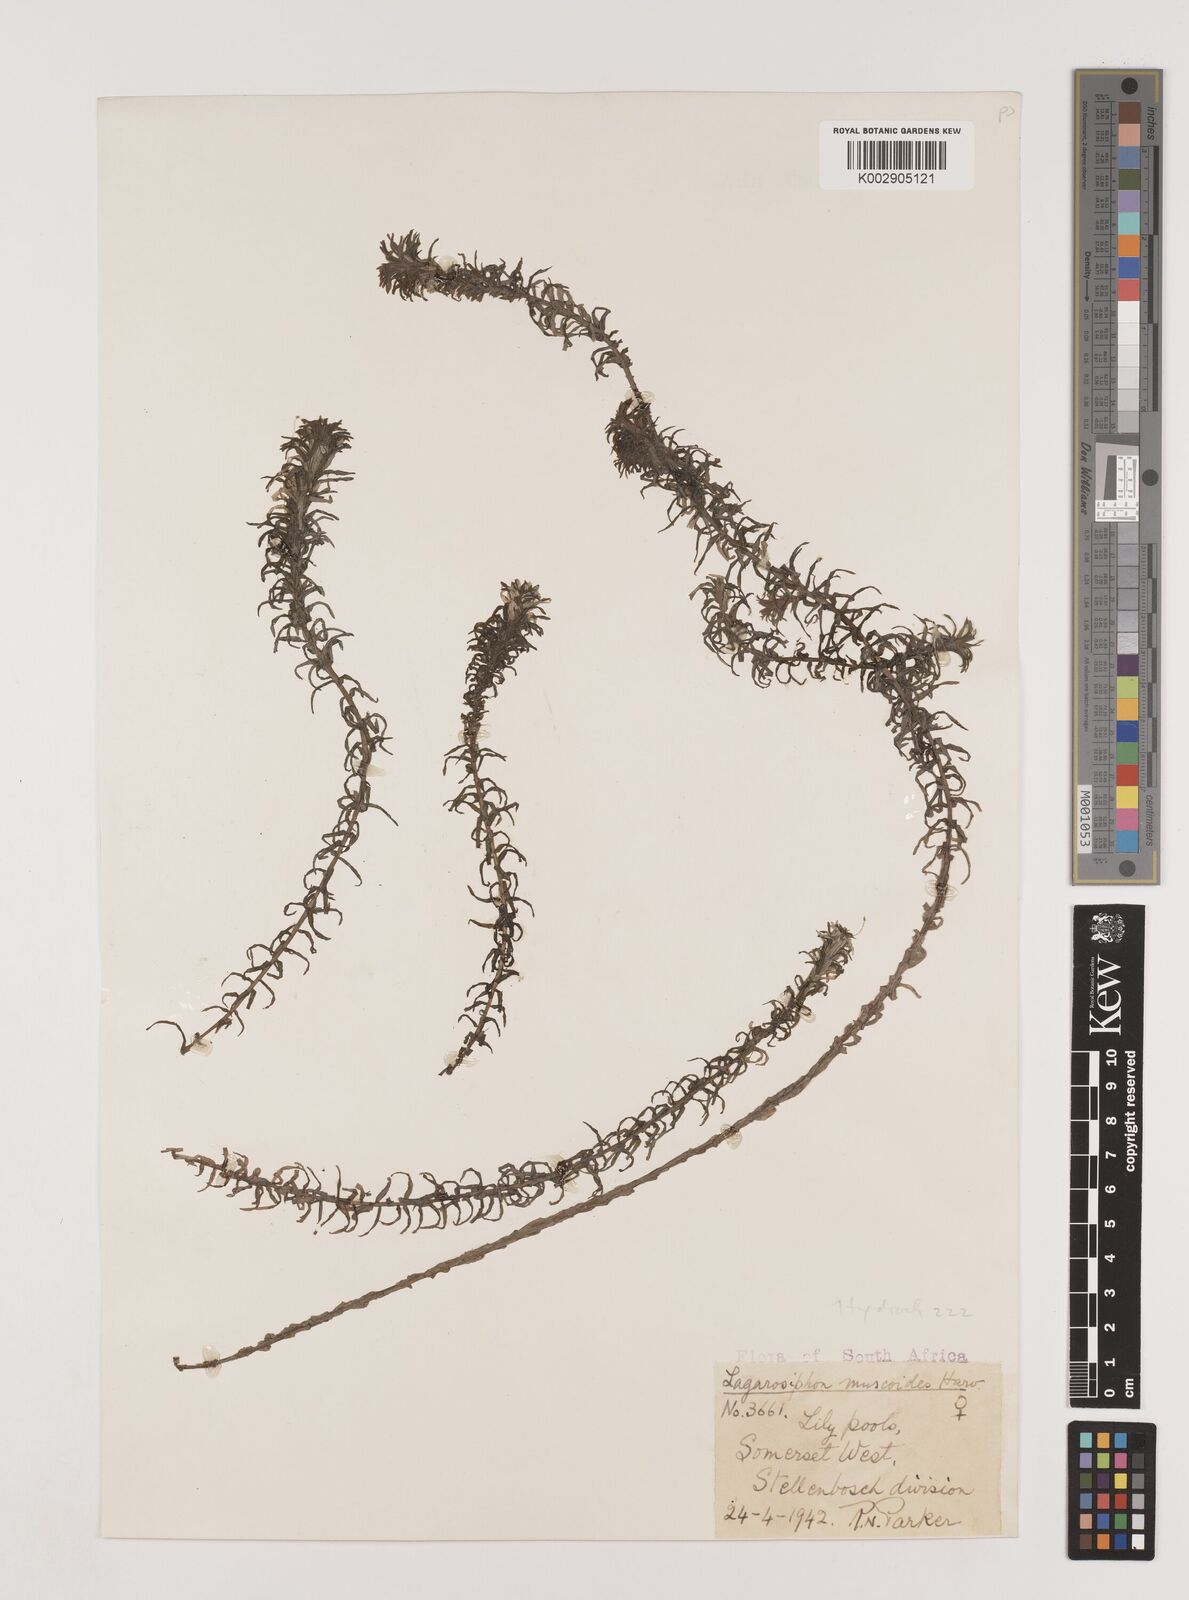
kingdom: Plantae
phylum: Tracheophyta
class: Liliopsida
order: Alismatales
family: Hydrocharitaceae
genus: Lagarosiphon
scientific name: Lagarosiphon major
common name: Curly waterweed
